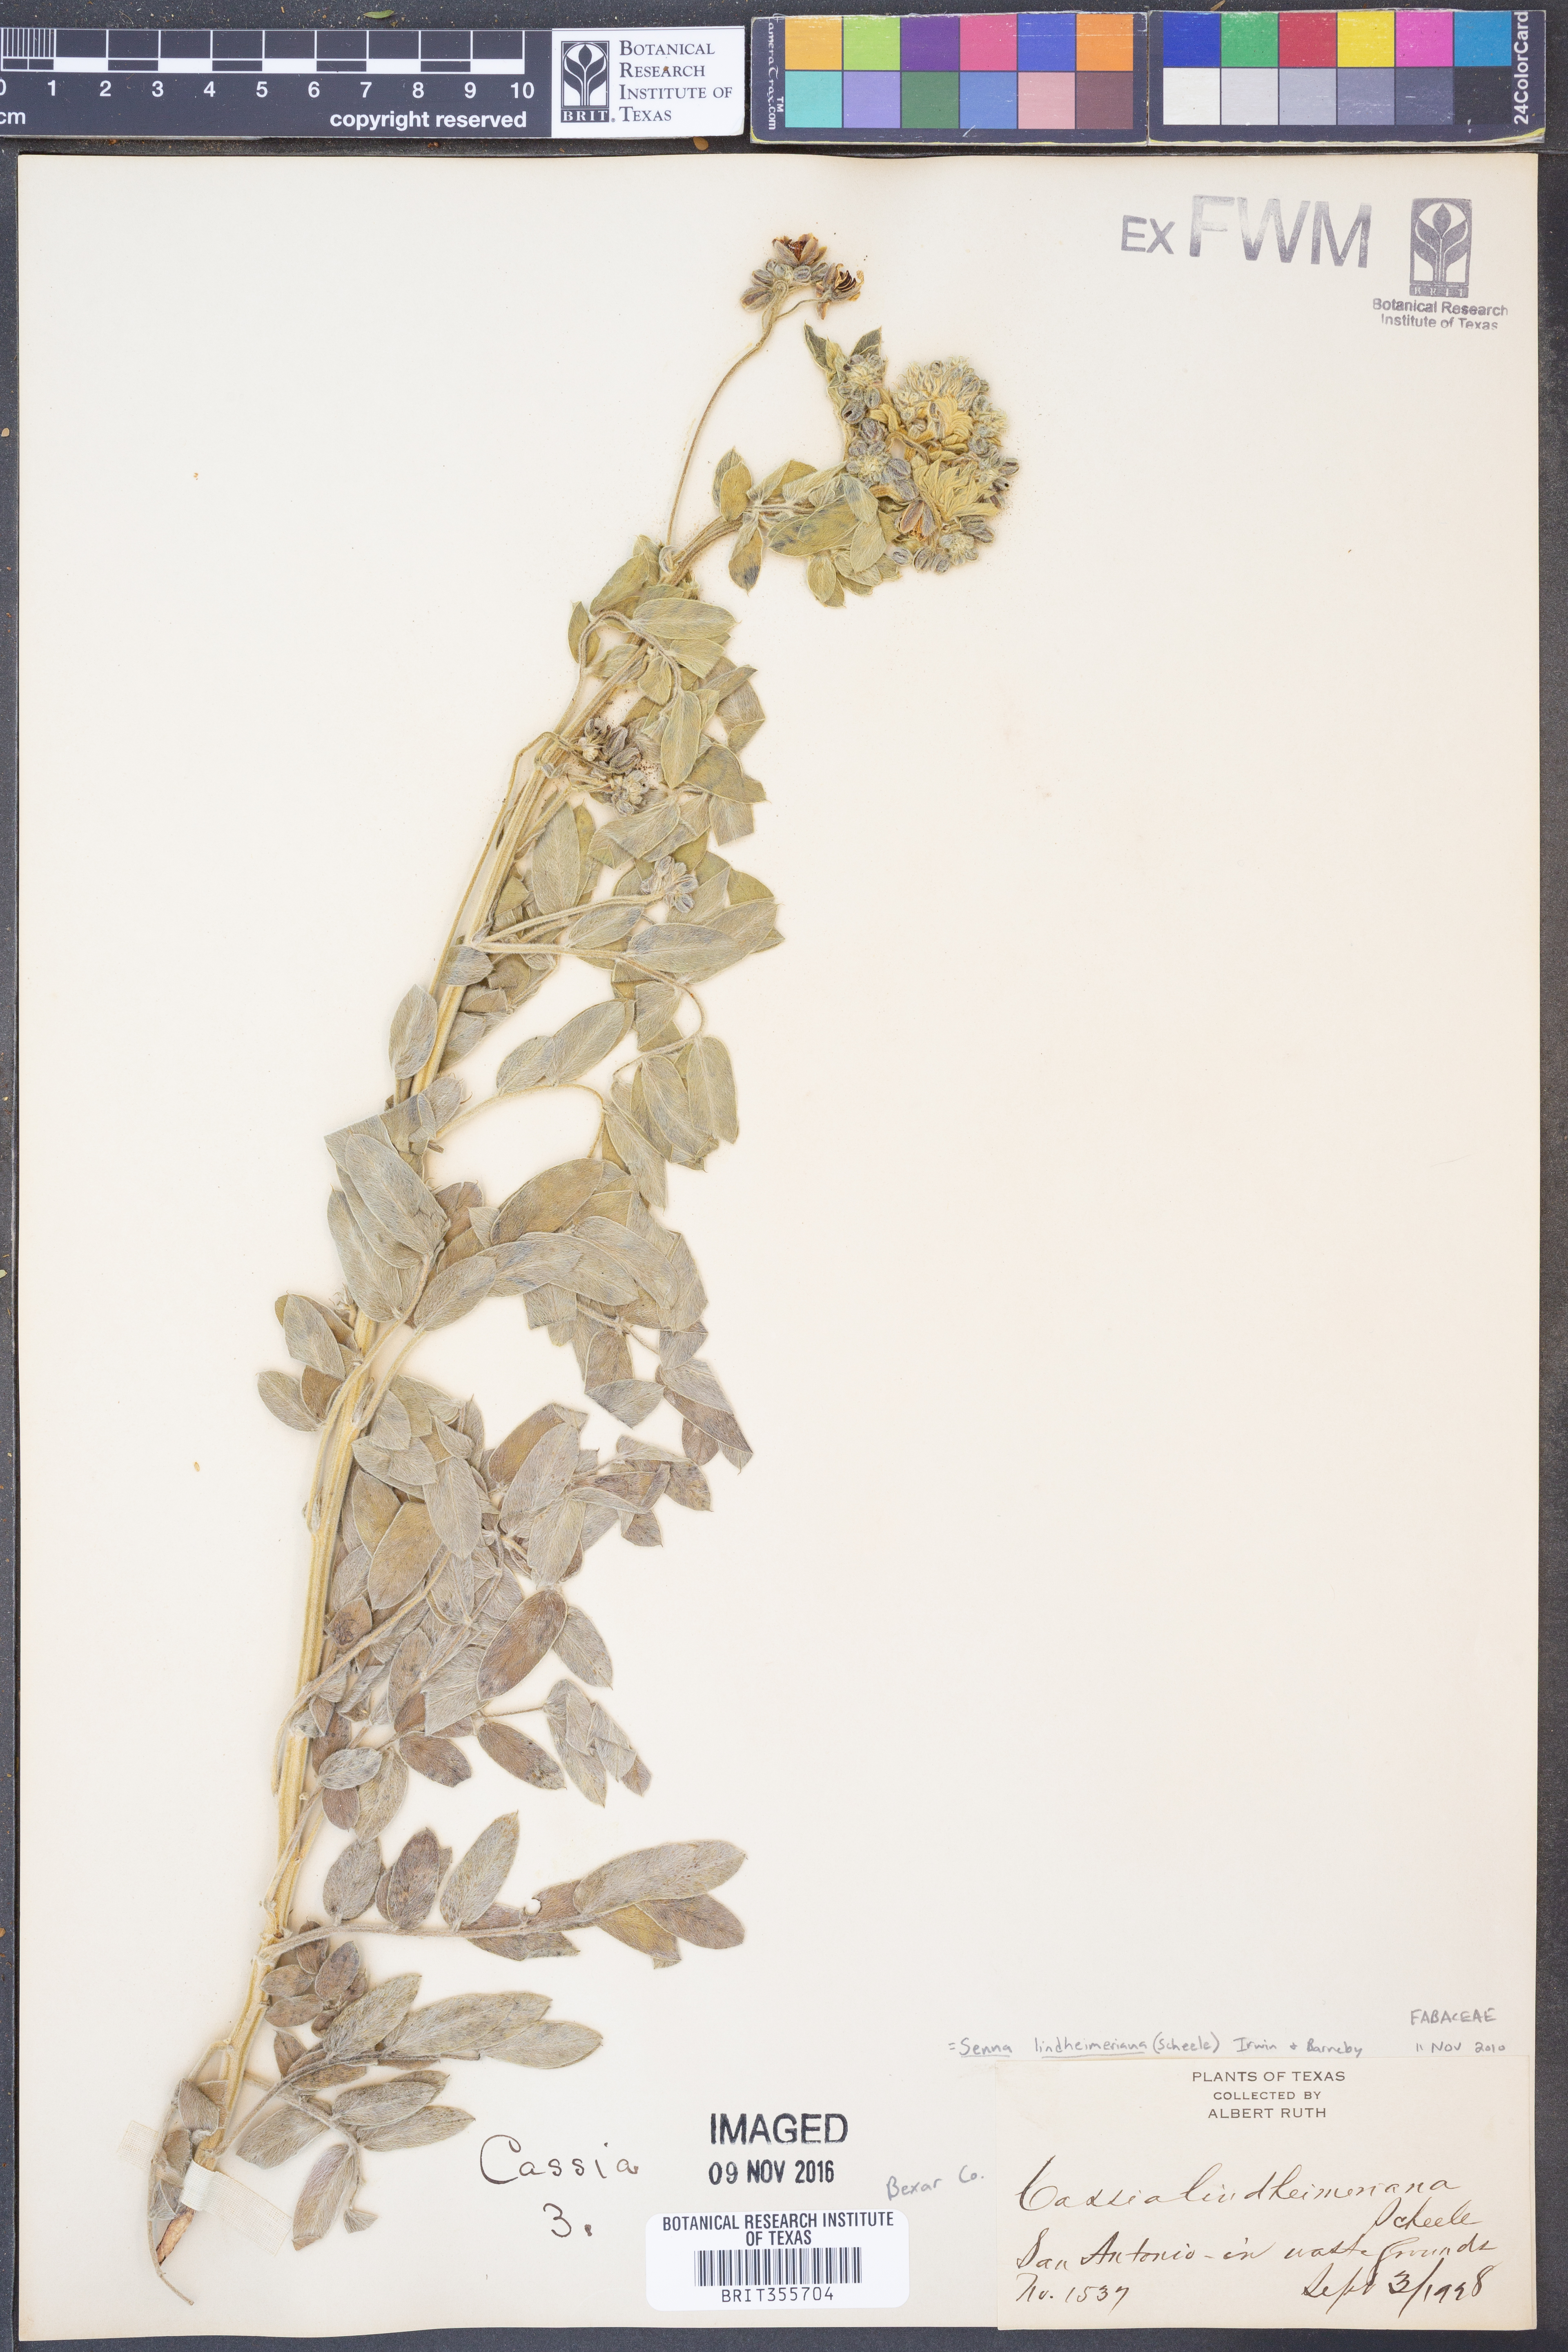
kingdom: Plantae
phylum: Tracheophyta
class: Magnoliopsida
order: Fabales
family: Fabaceae
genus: Senna
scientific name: Senna lindheimeriana
